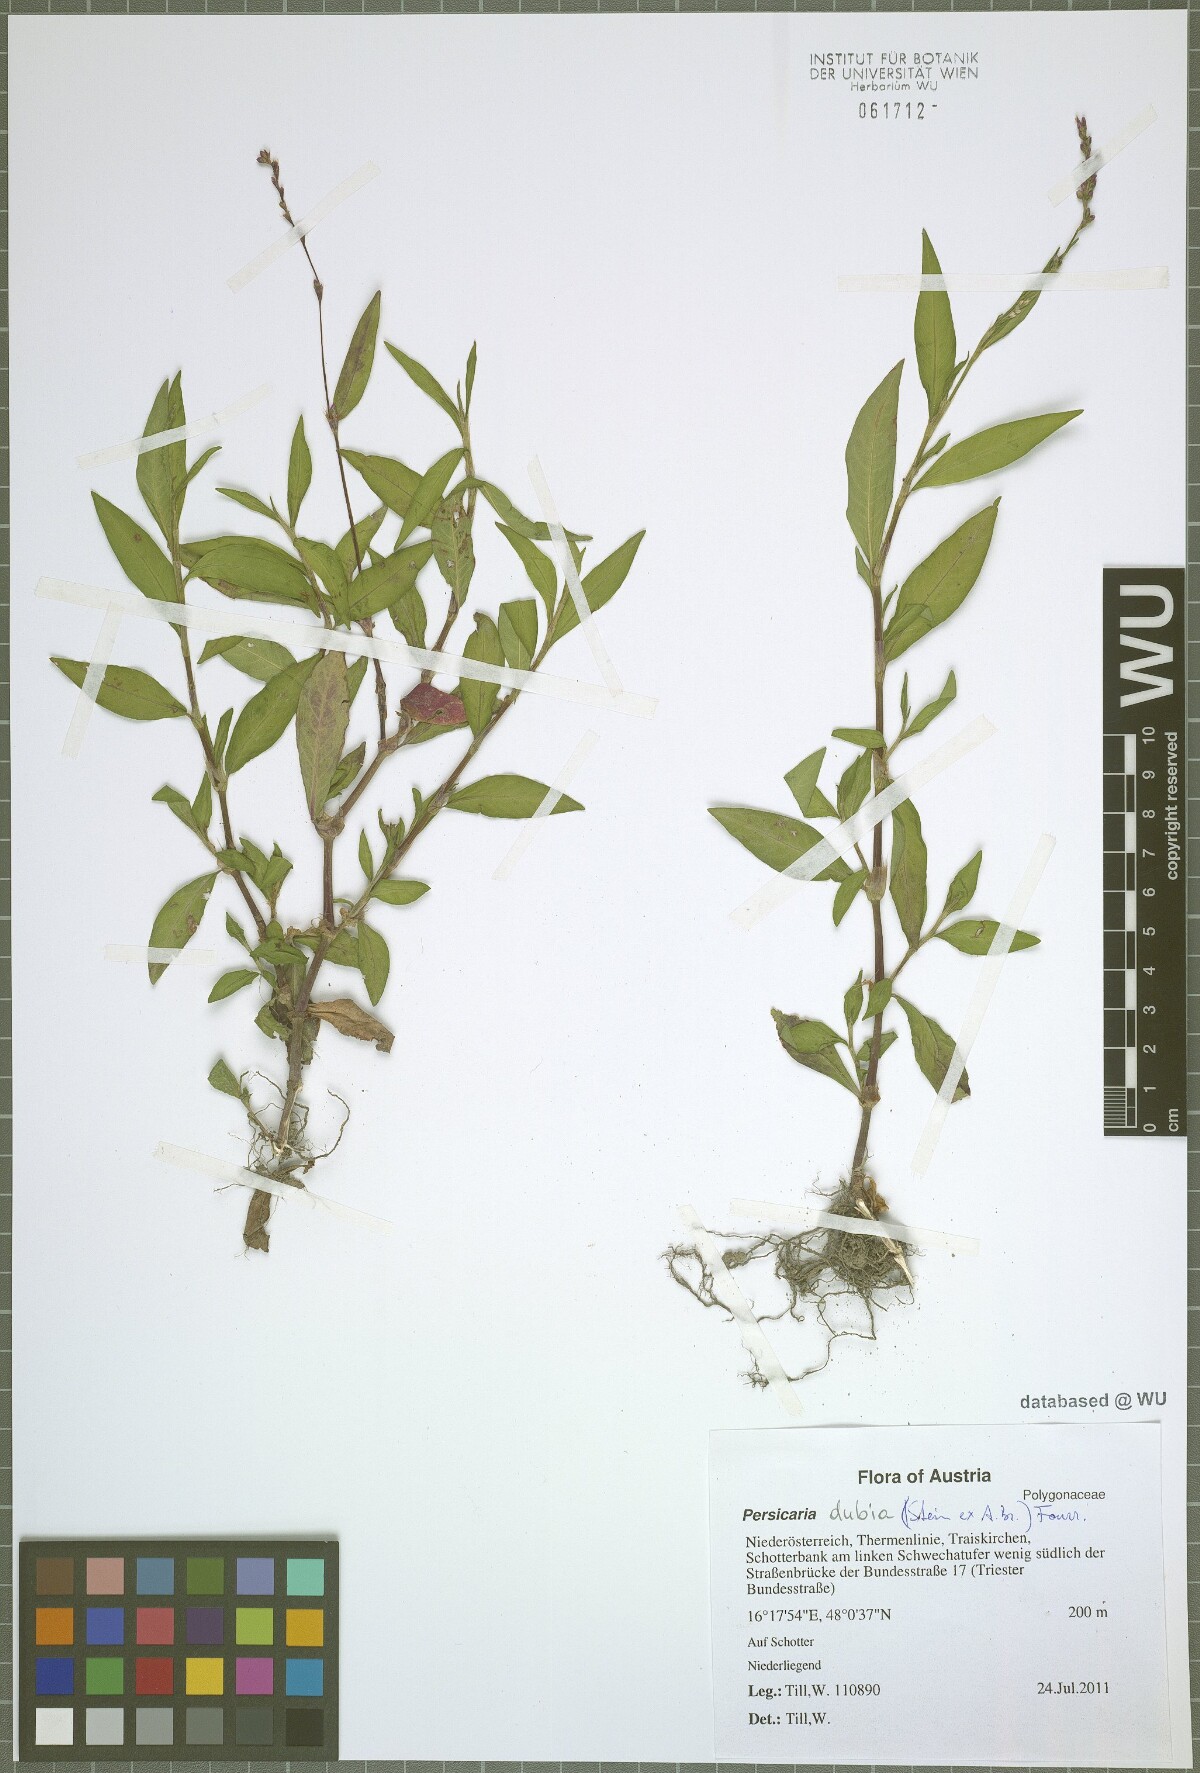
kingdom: Plantae
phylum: Tracheophyta
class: Magnoliopsida
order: Caryophyllales
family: Polygonaceae
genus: Persicaria
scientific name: Persicaria mitis
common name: Tasteless water-pepper
